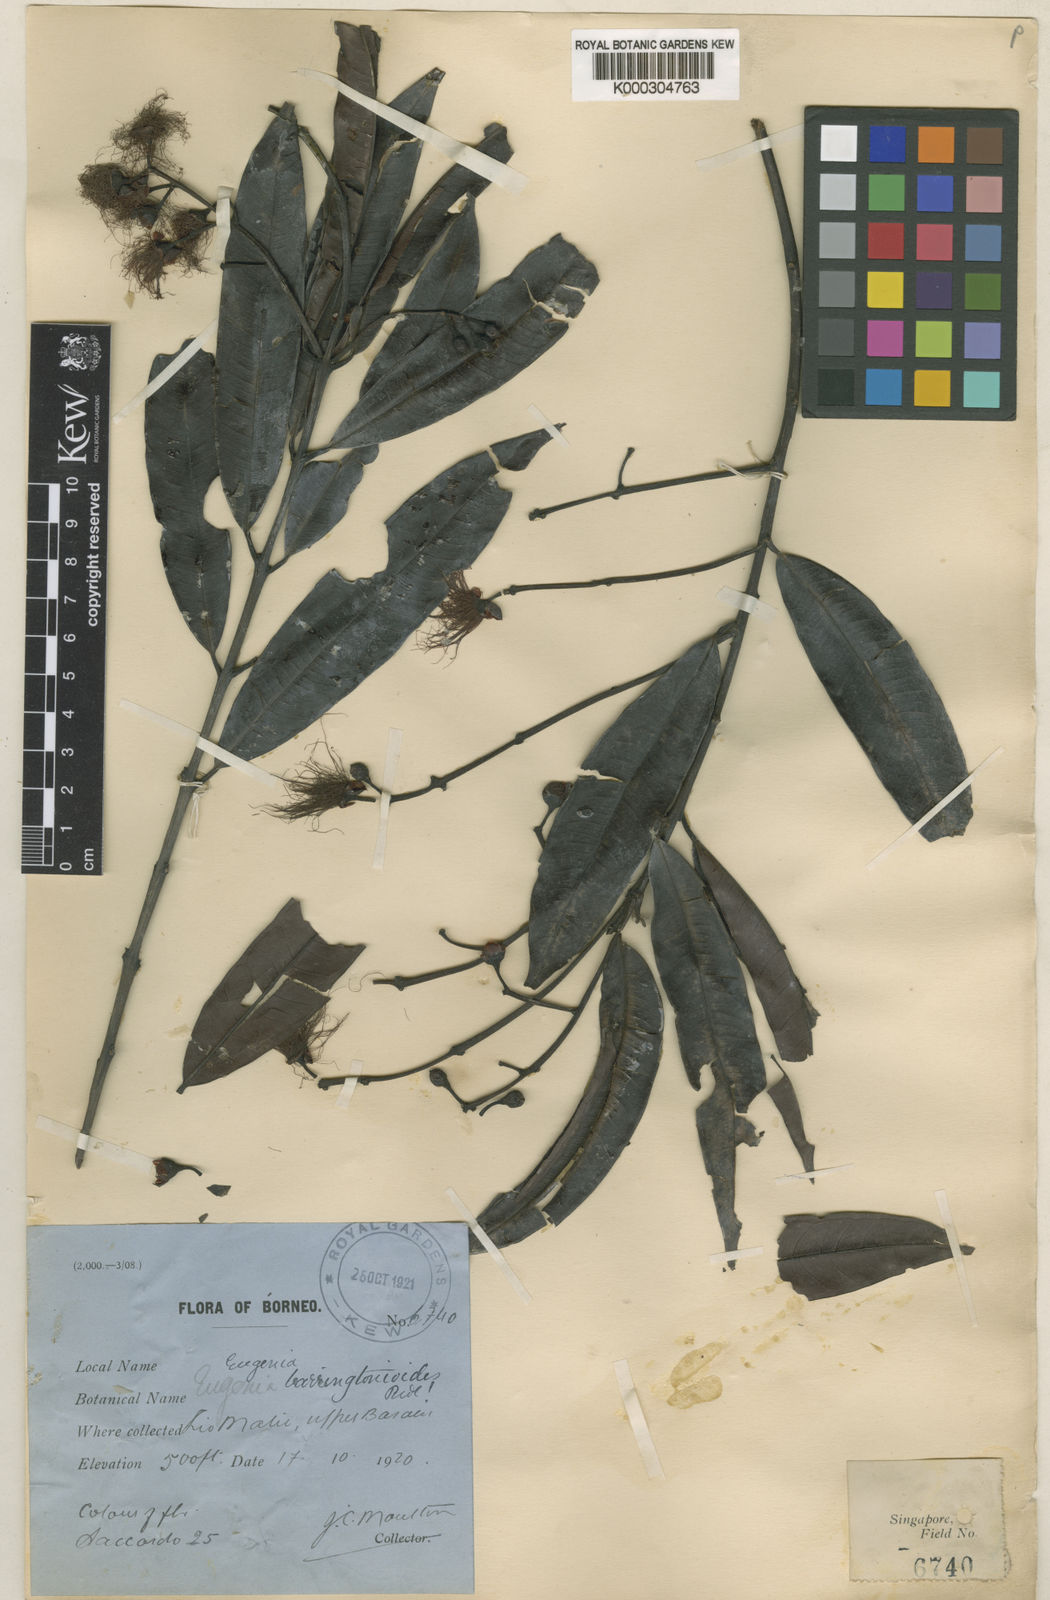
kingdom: Plantae
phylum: Tracheophyta
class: Magnoliopsida
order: Myrtales
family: Myrtaceae
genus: Syzygium
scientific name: Syzygium barringtonioides
